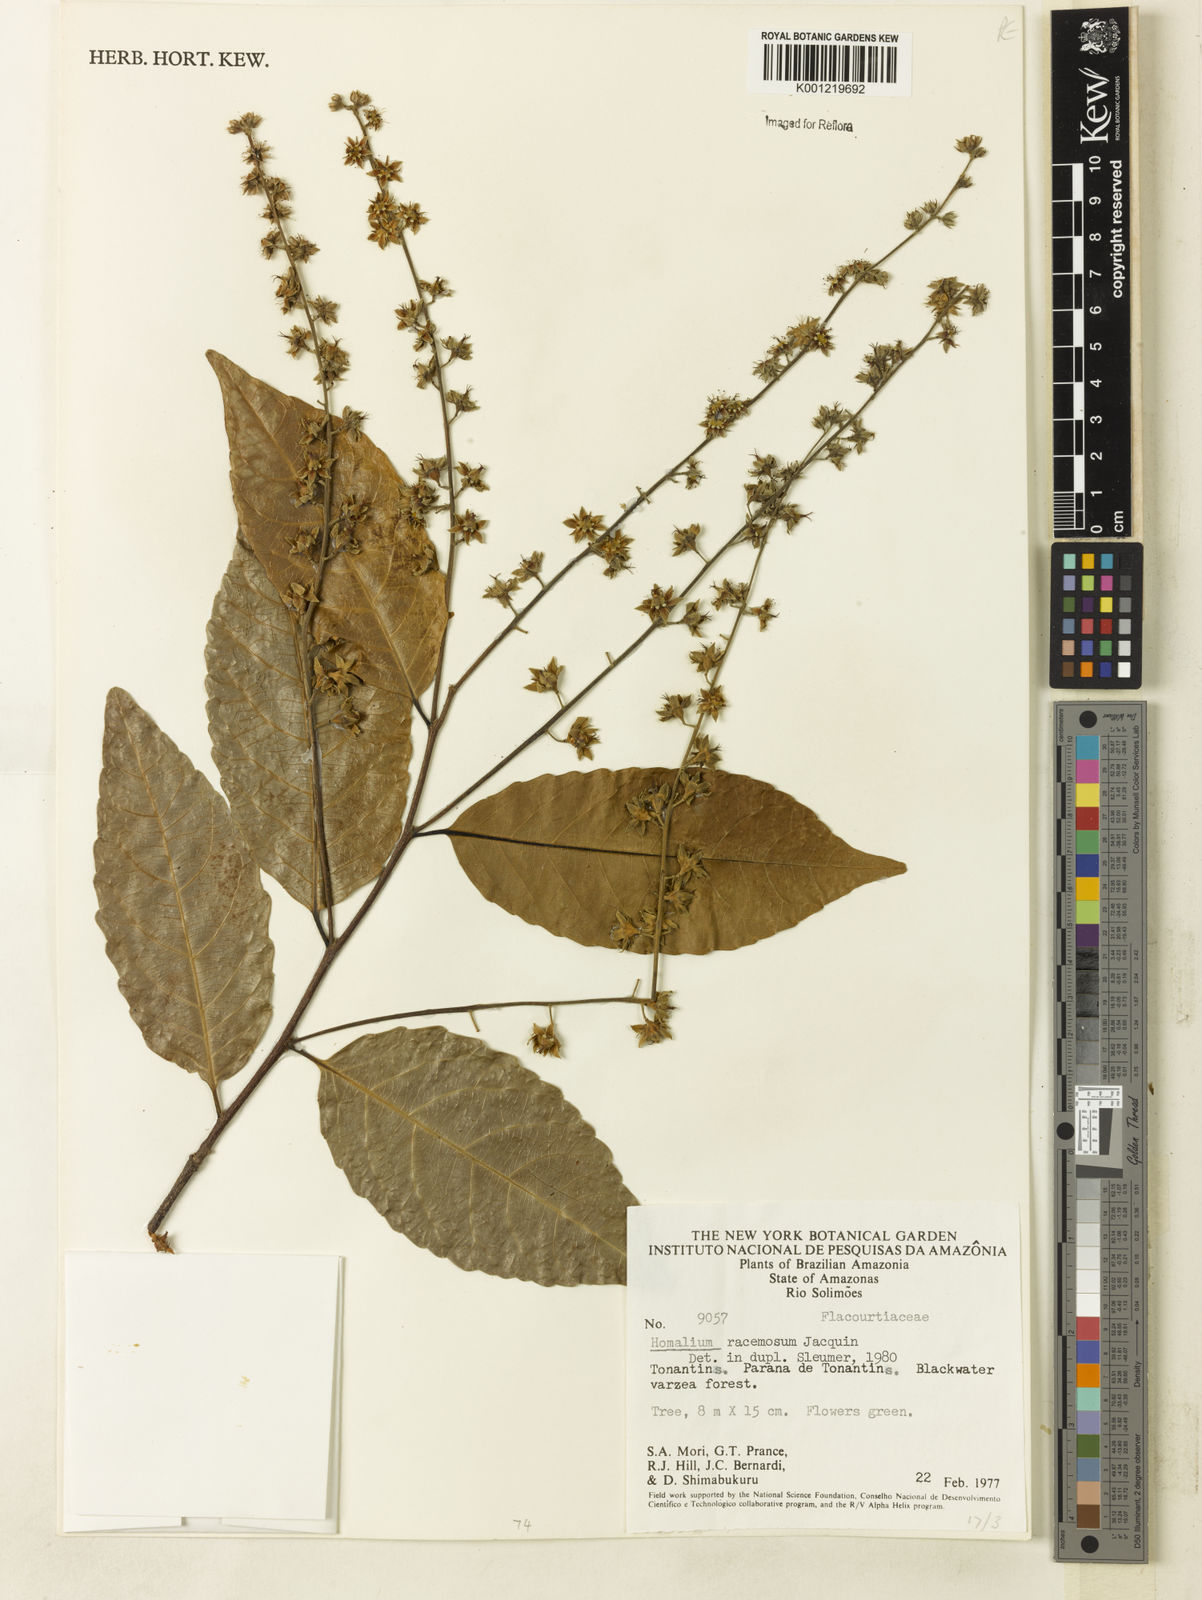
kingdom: Plantae
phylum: Tracheophyta
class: Magnoliopsida
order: Malpighiales
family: Salicaceae
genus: Homalium
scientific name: Homalium racemosum
